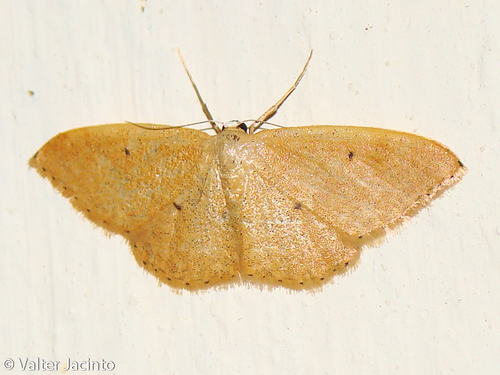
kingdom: Animalia
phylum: Arthropoda
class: Insecta
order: Lepidoptera
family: Geometridae
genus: Idaea
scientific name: Idaea predotaria
